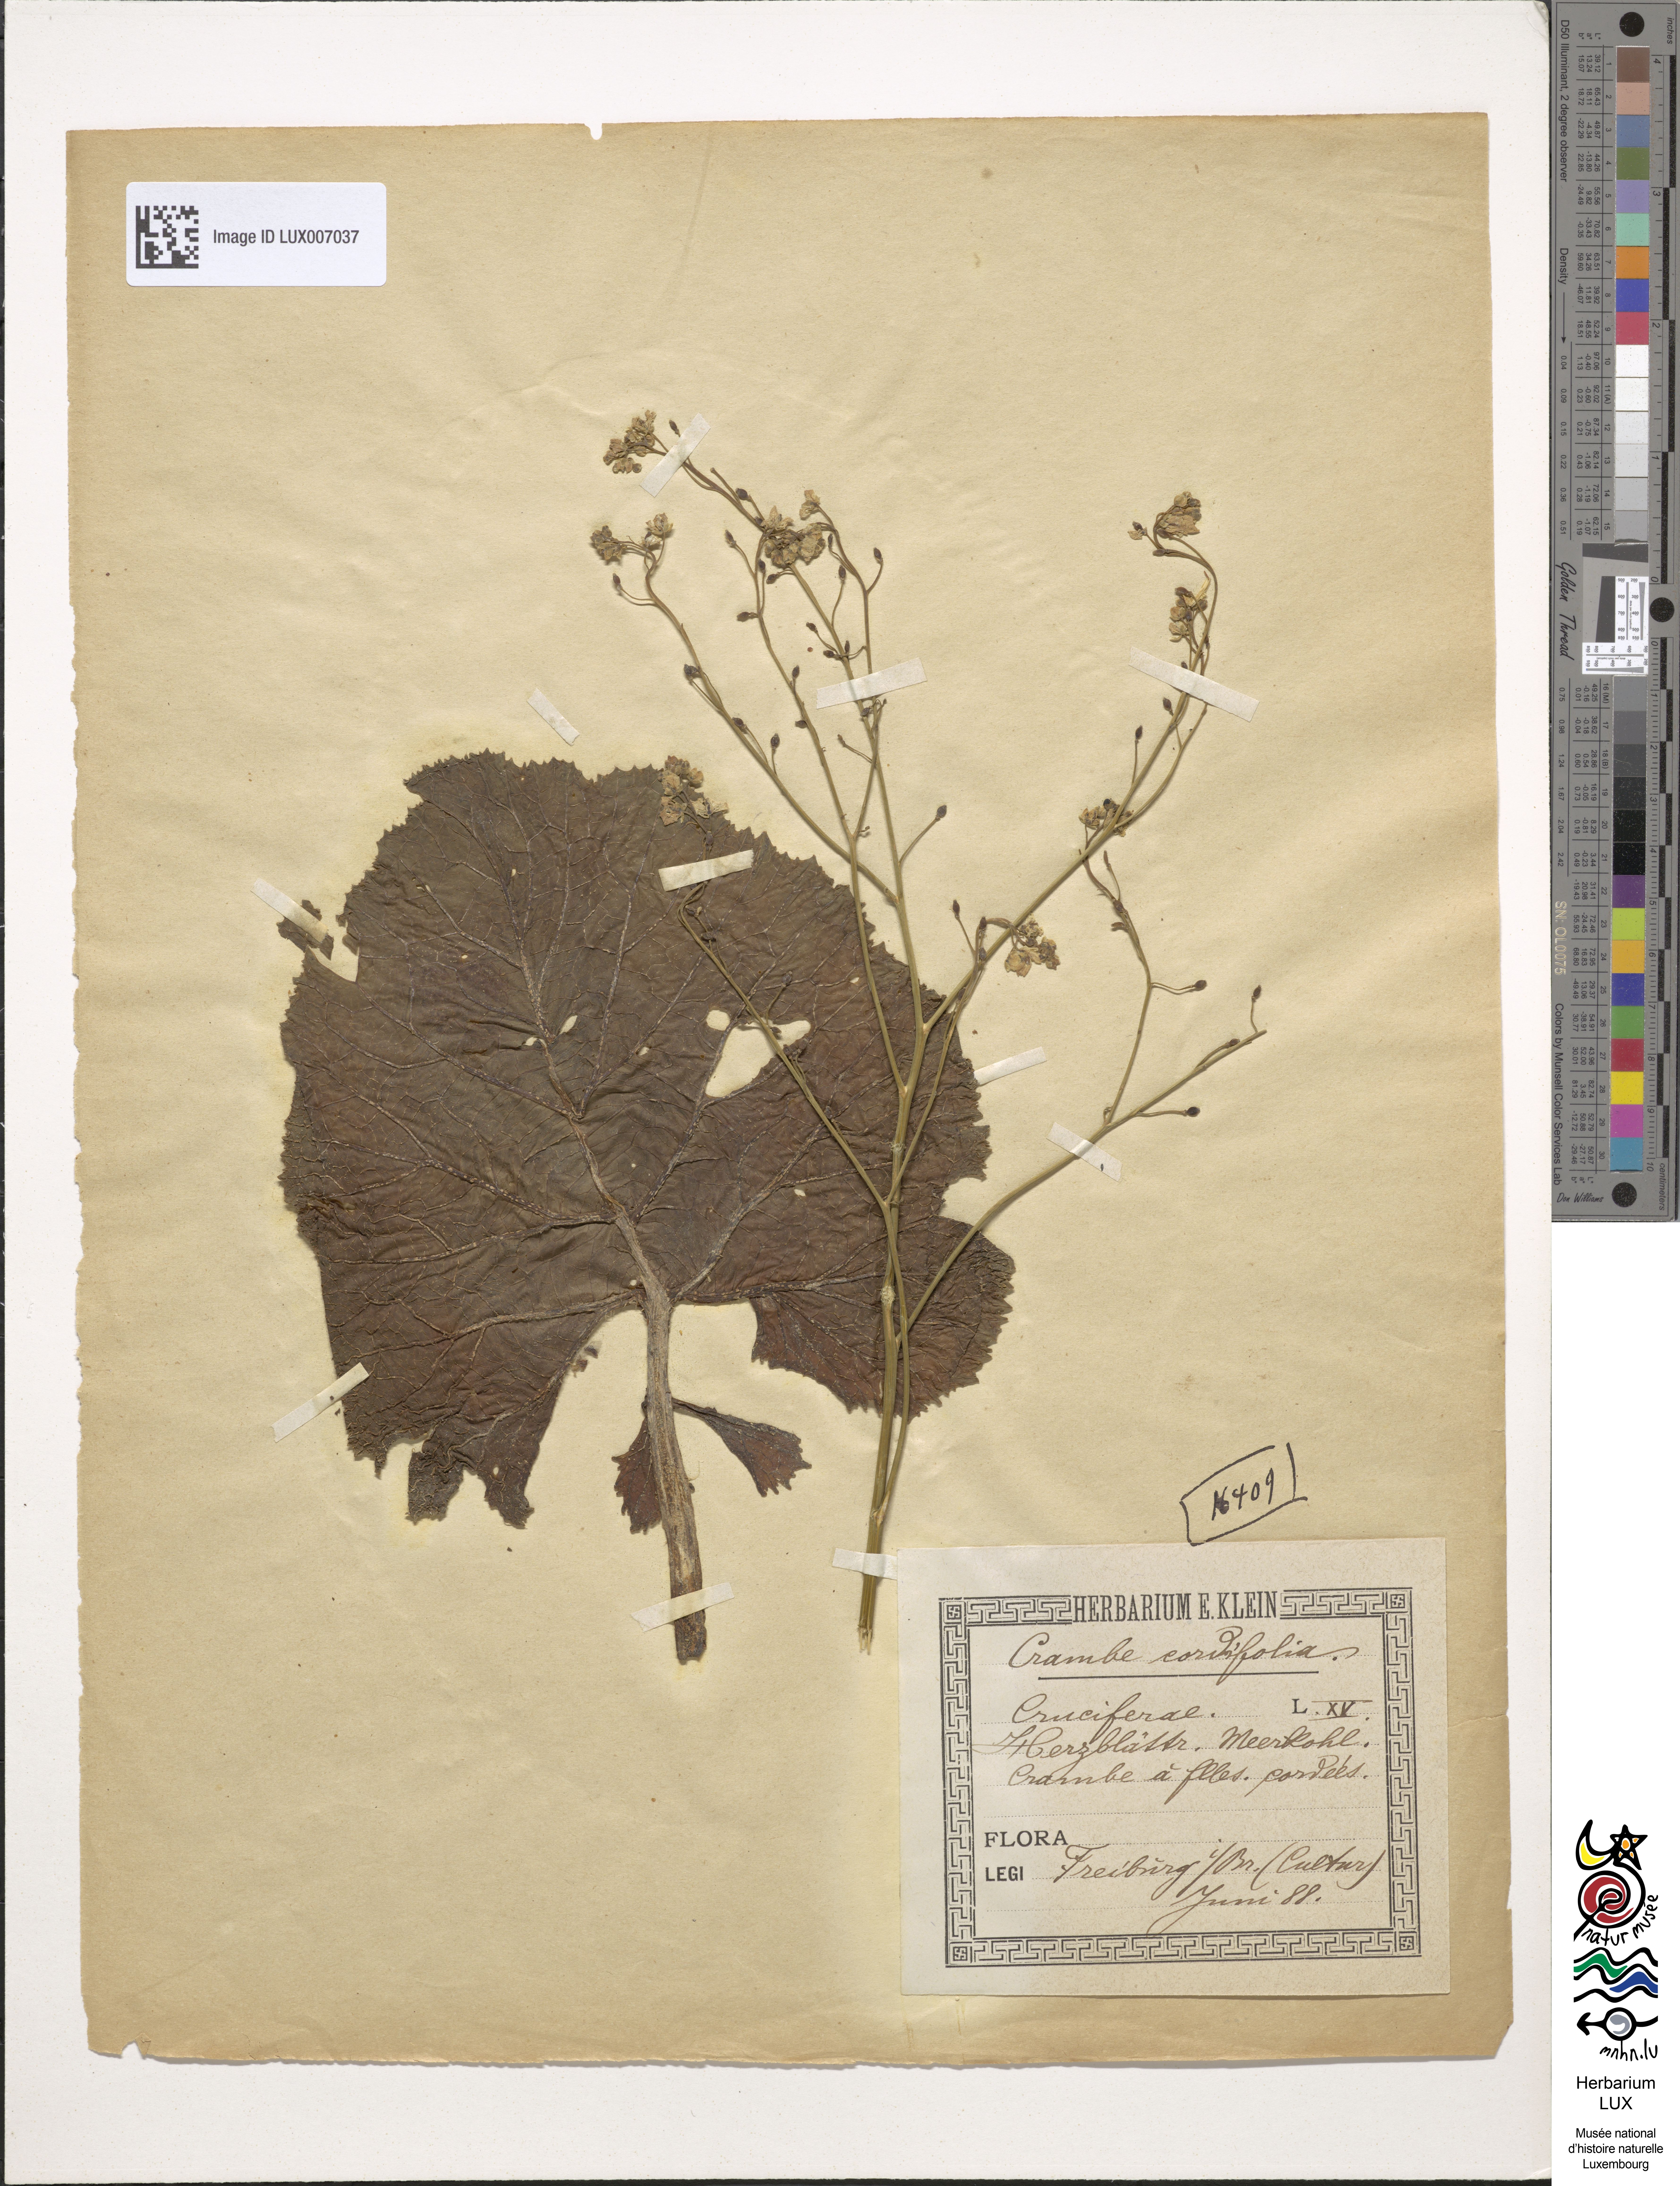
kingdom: Plantae
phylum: Tracheophyta
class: Magnoliopsida
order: Brassicales
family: Brassicaceae
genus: Crambe
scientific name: Crambe cordifolia
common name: Greater sea-kale
